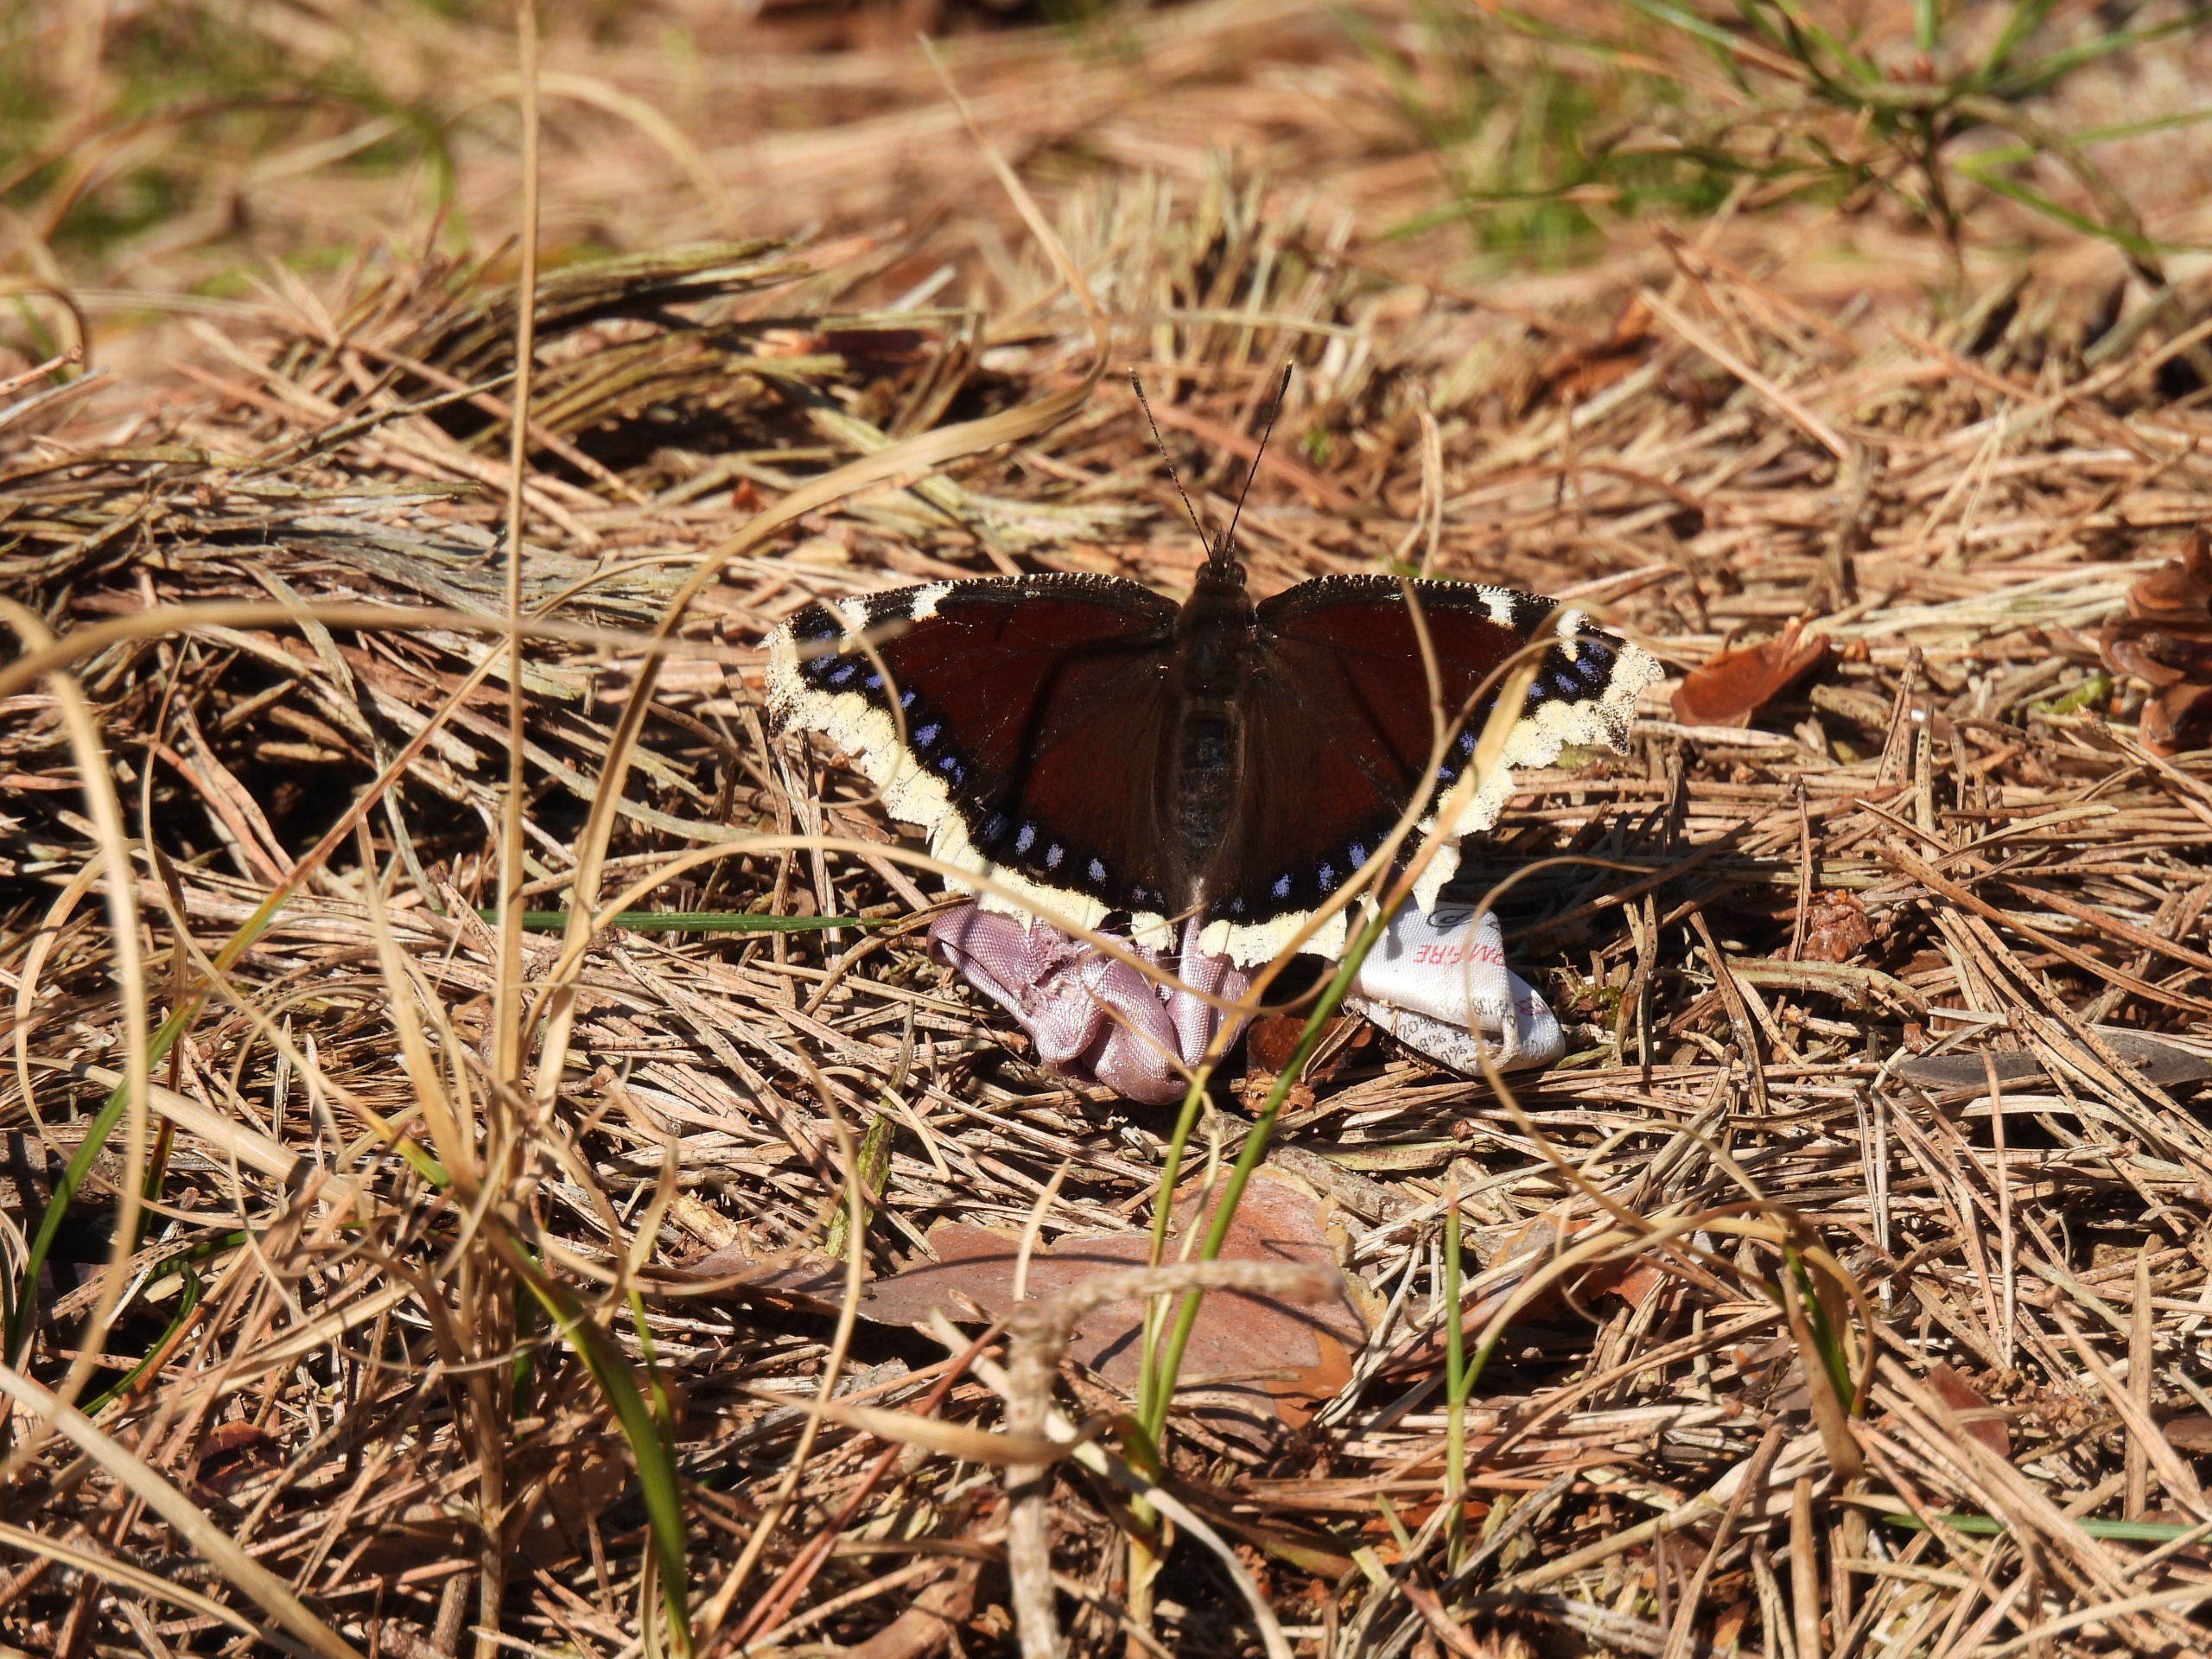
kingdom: Animalia
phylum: Arthropoda
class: Insecta
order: Lepidoptera
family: Nymphalidae
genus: Nymphalis
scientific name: Nymphalis antiopa
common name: Sørgekåbe
